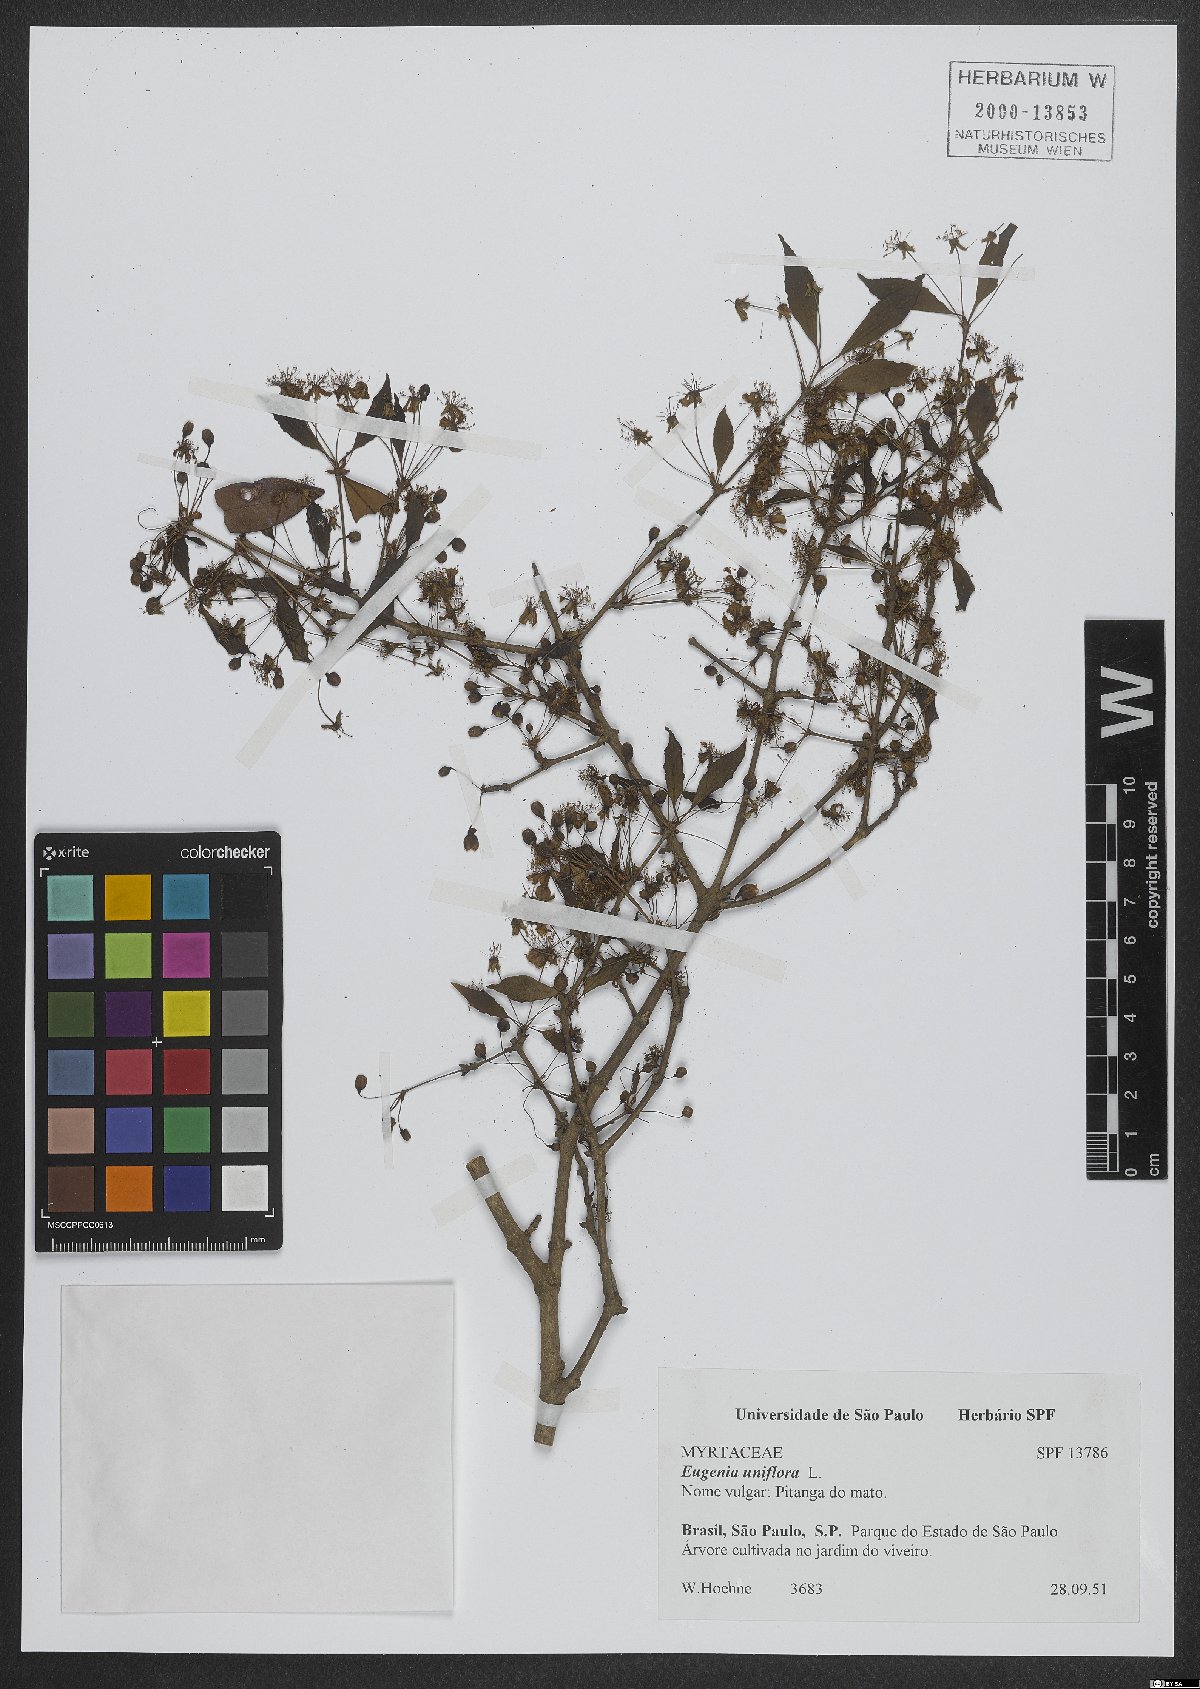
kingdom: Plantae
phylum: Tracheophyta
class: Magnoliopsida
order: Myrtales
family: Myrtaceae
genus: Eugenia
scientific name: Eugenia uniflora
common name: Surinam cherry
